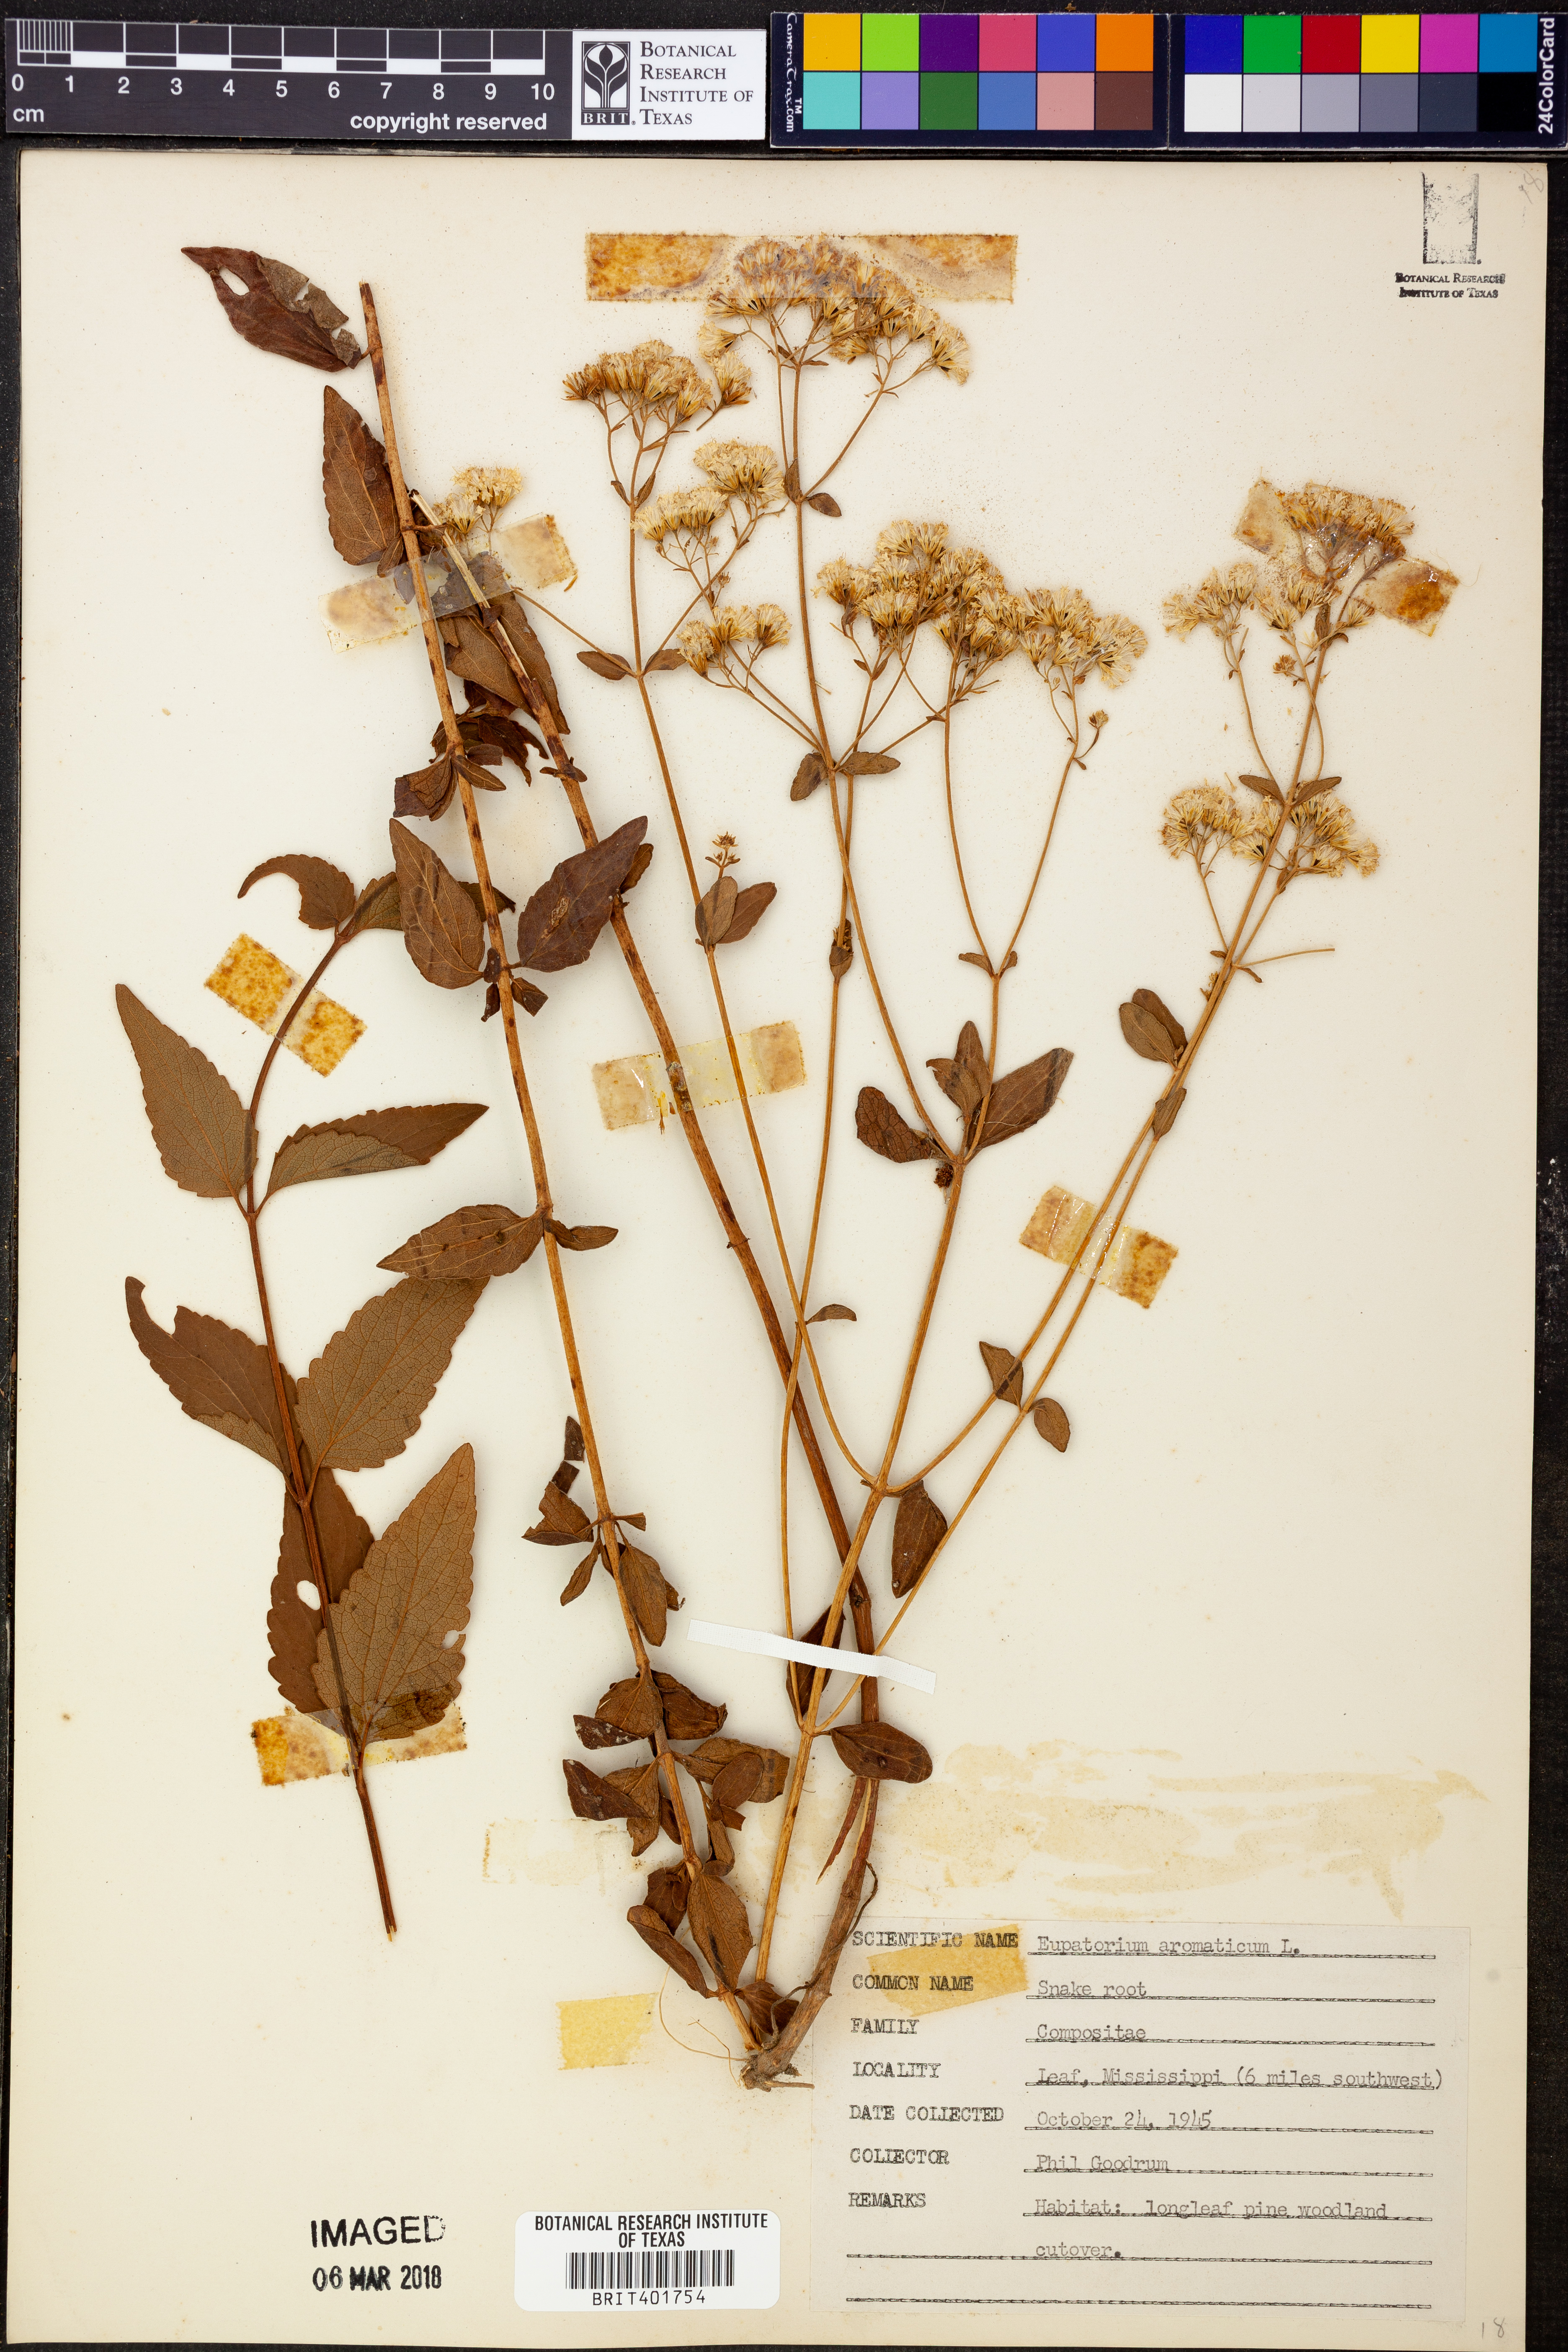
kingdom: Plantae
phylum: Tracheophyta
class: Magnoliopsida
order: Asterales
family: Asteraceae
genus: Ageratina
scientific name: Ageratina aromatica
